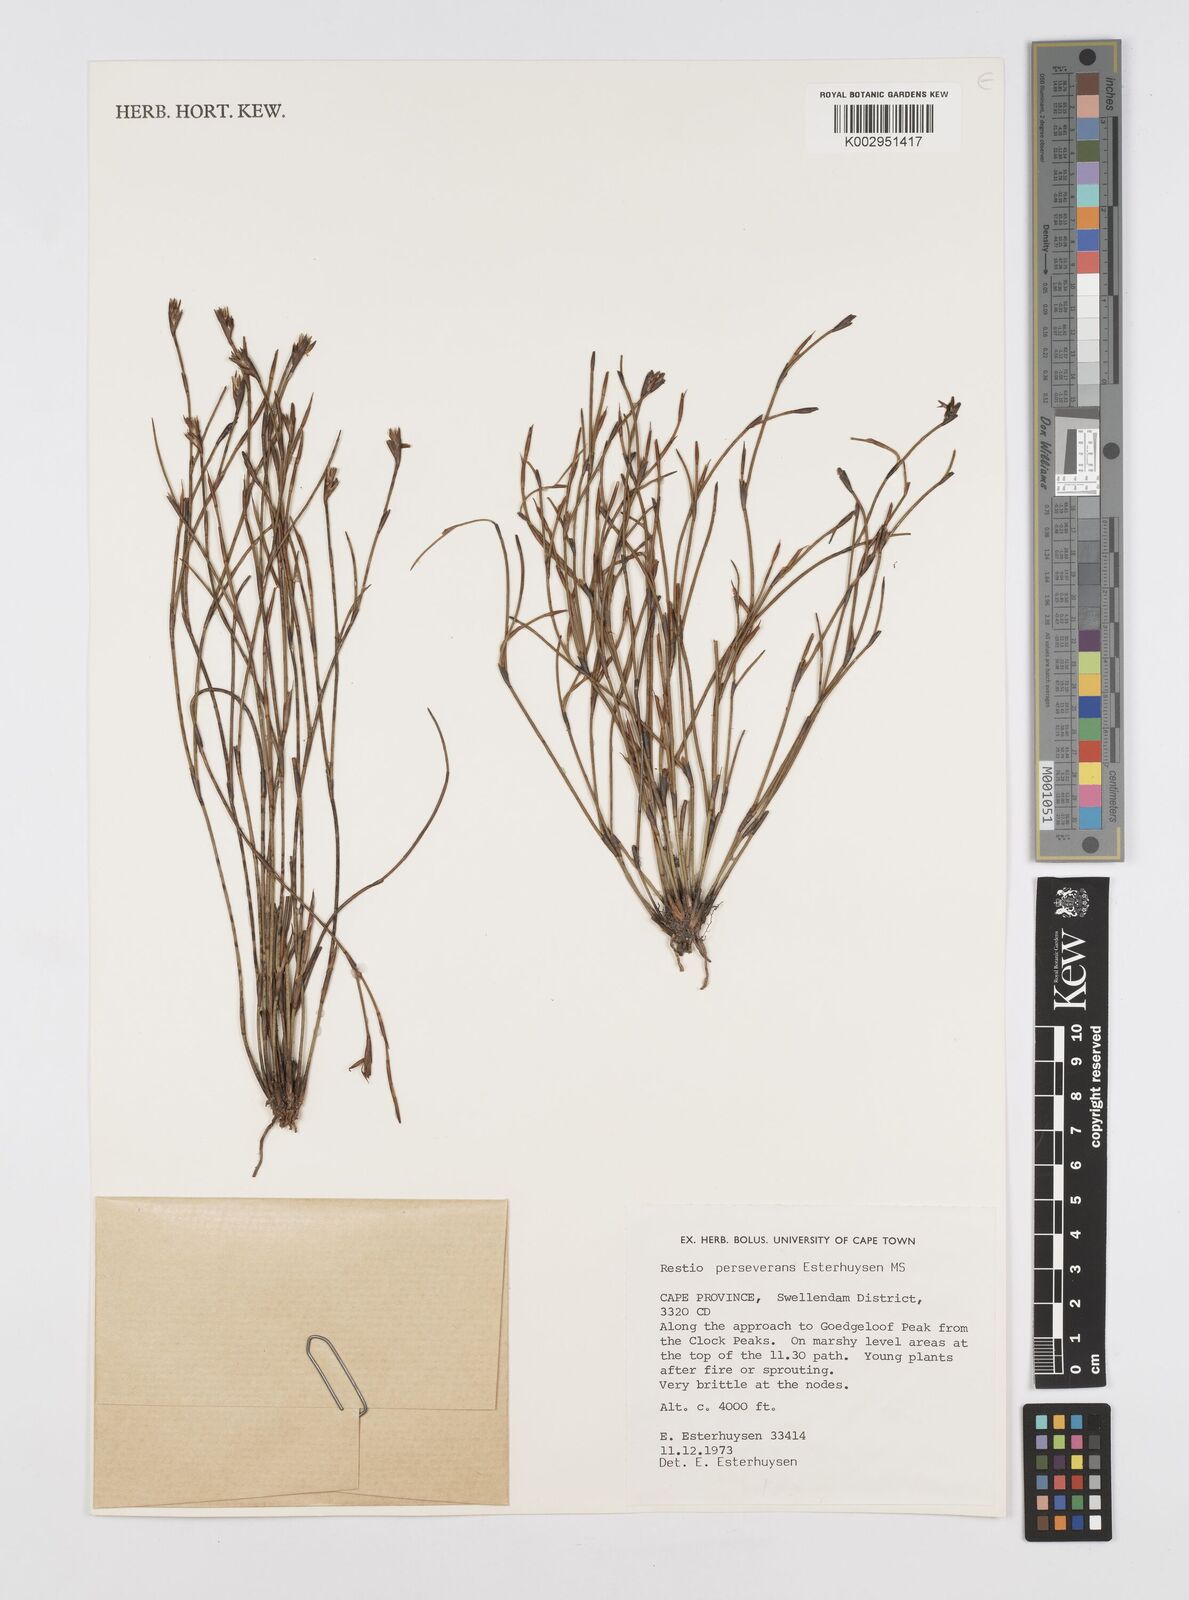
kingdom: Plantae
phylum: Tracheophyta
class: Liliopsida
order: Poales
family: Restionaceae
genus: Restio
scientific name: Restio perseverans
